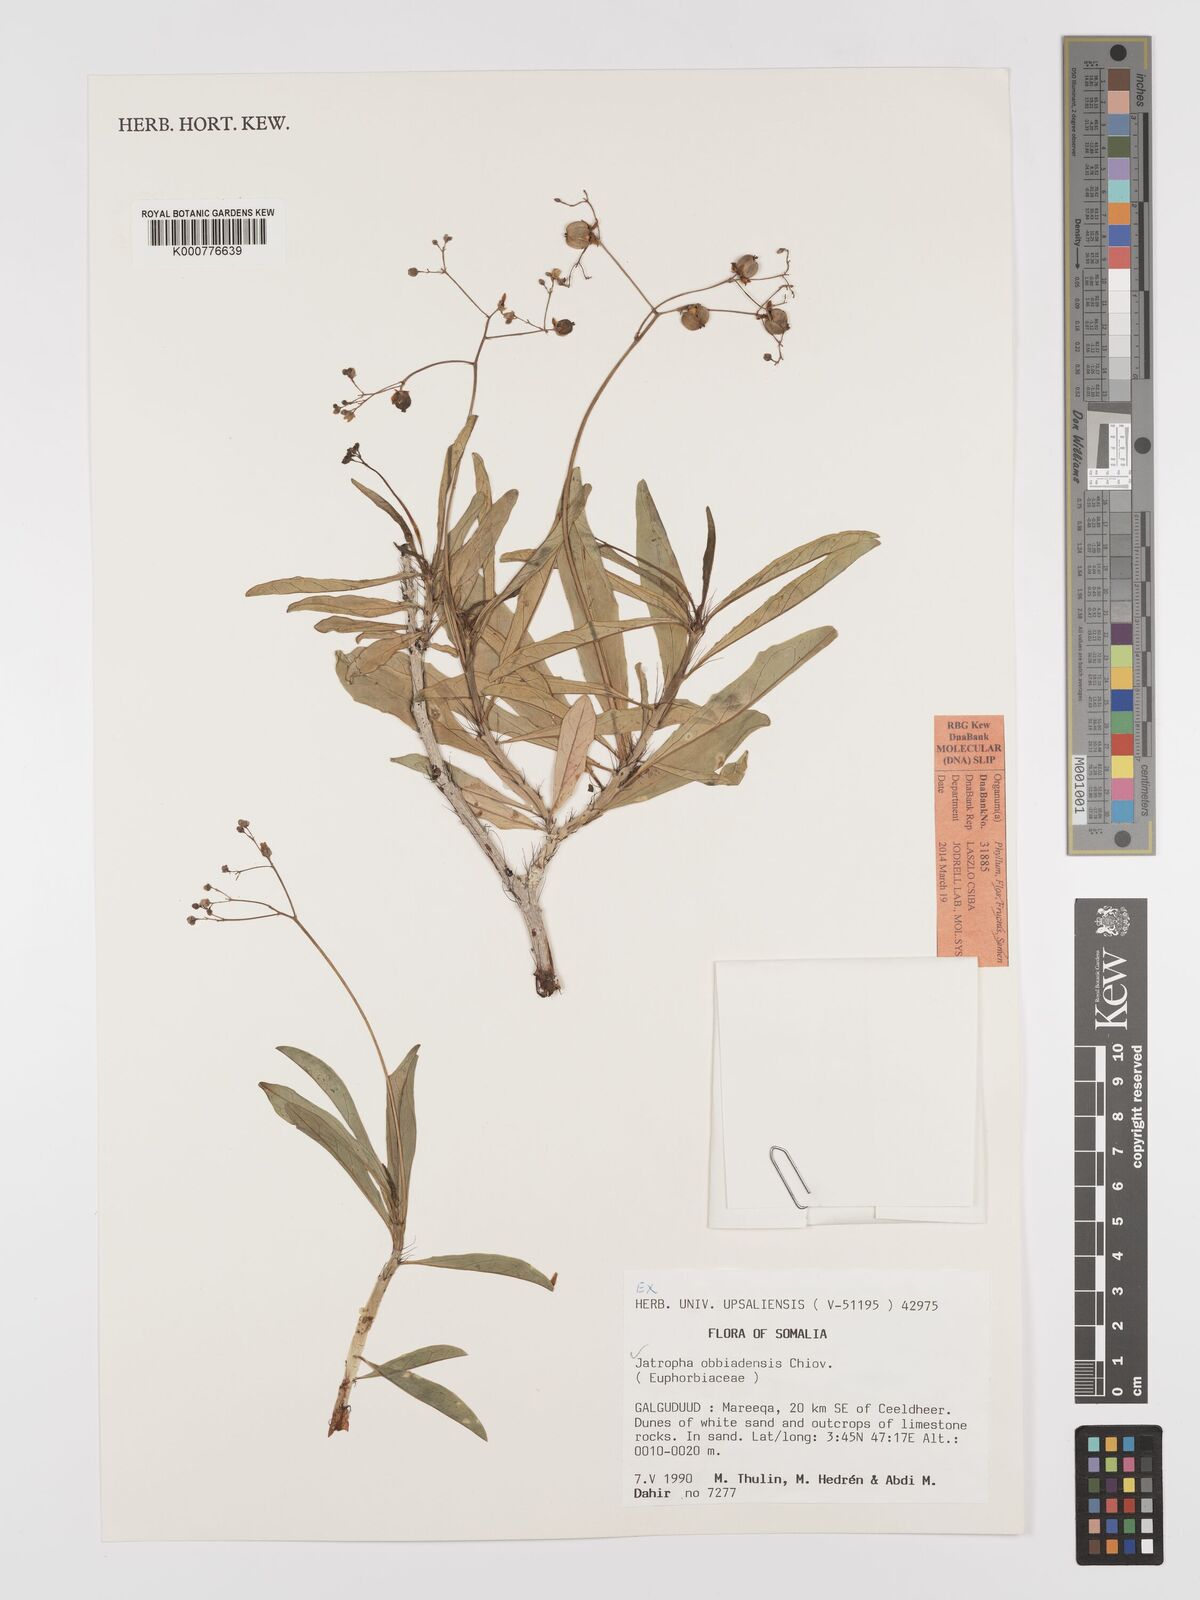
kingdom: Plantae
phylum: Tracheophyta
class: Magnoliopsida
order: Malpighiales
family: Euphorbiaceae
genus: Jatropha
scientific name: Jatropha obbiadensis
